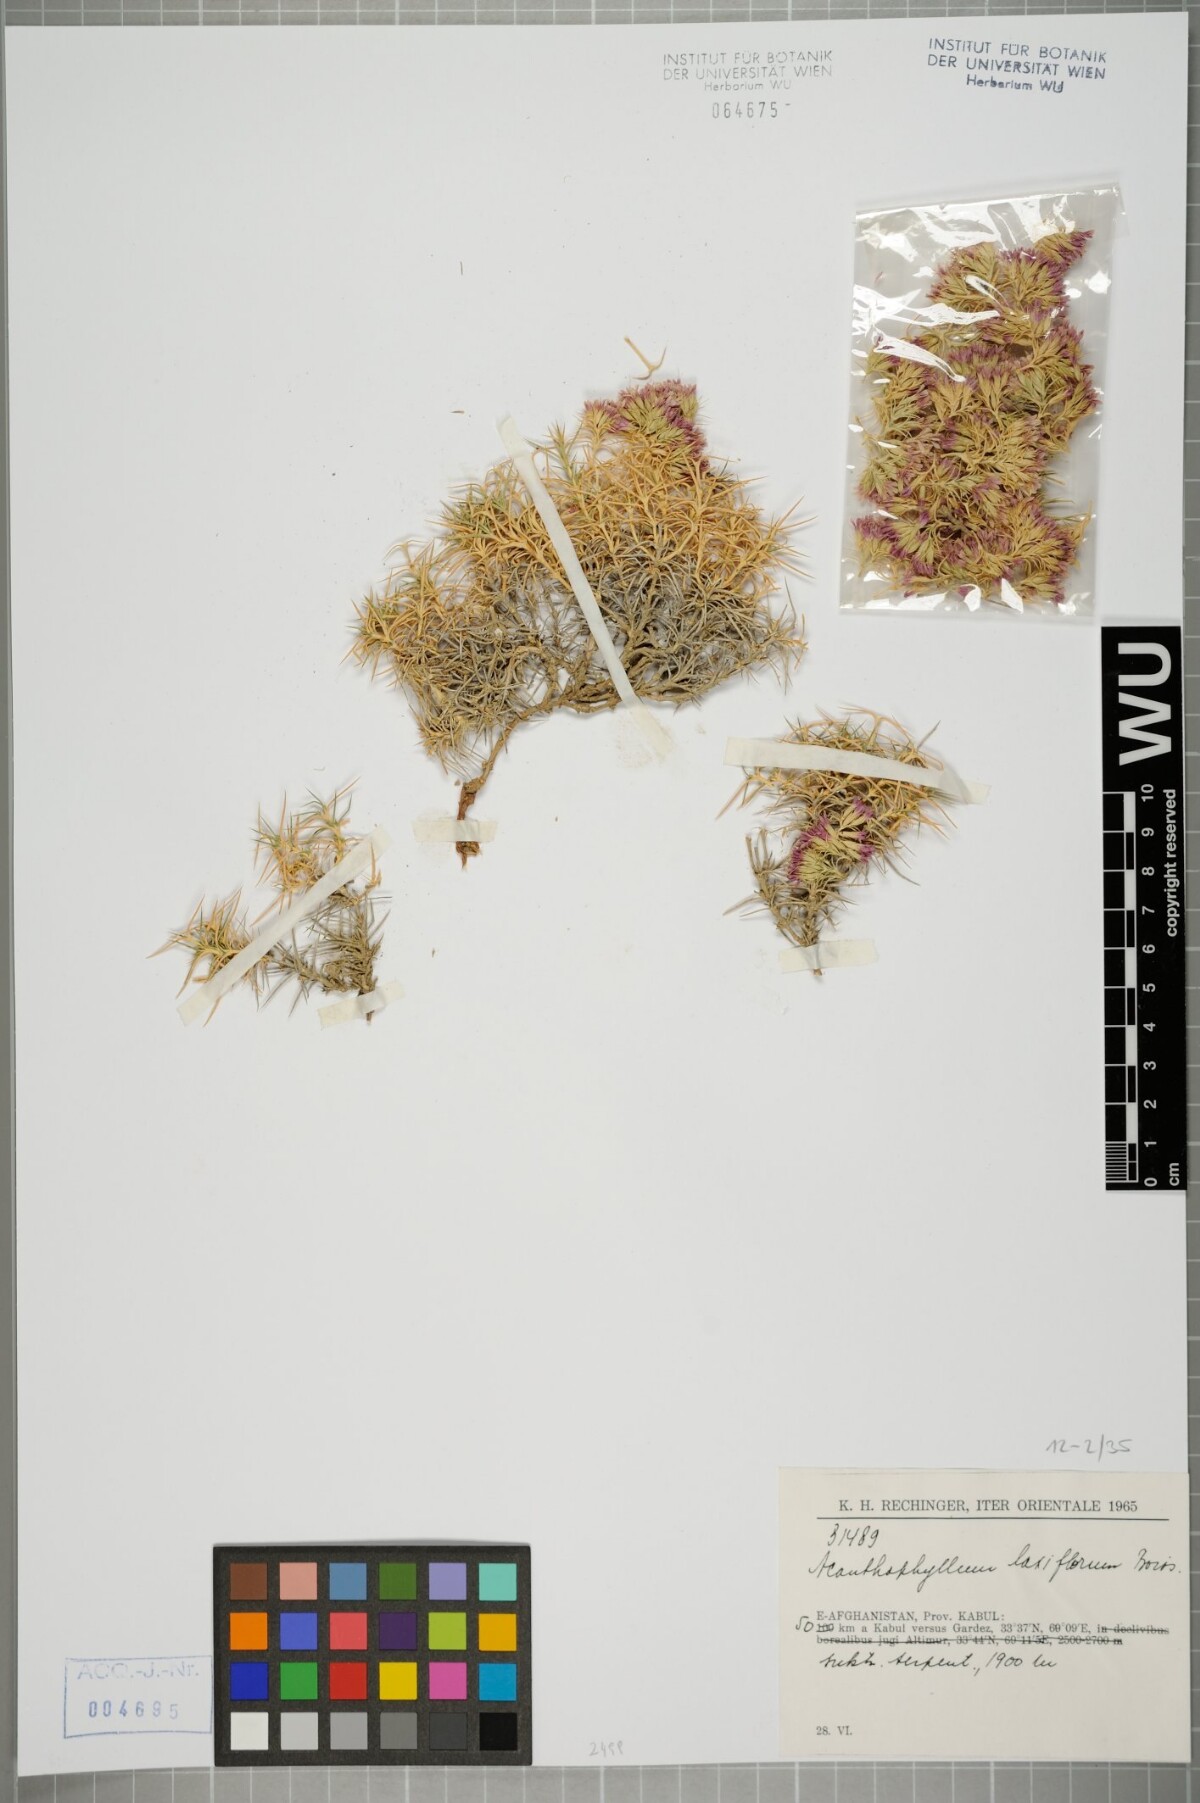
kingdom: Plantae
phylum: Tracheophyta
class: Magnoliopsida
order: Caryophyllales
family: Caryophyllaceae
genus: Acanthophyllum
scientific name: Acanthophyllum laxiflorum
